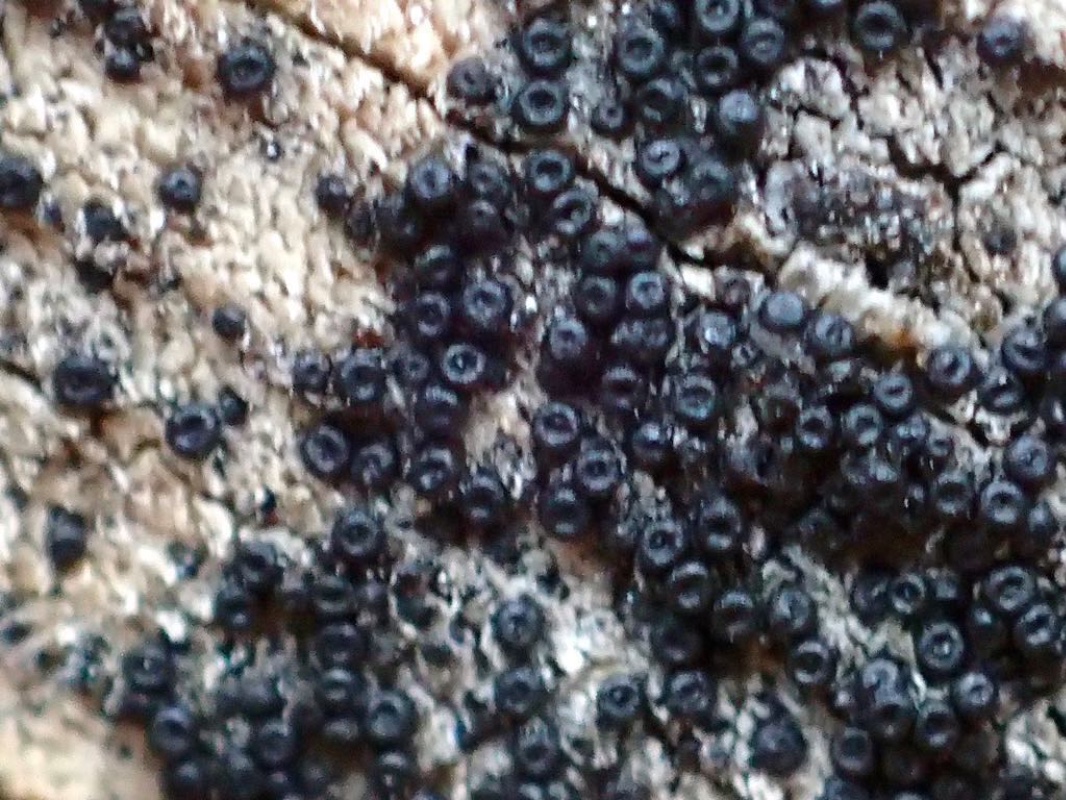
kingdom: Fungi
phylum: Ascomycota
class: Sordariomycetes
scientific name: Sordariomycetes
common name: kernesvampklassen
